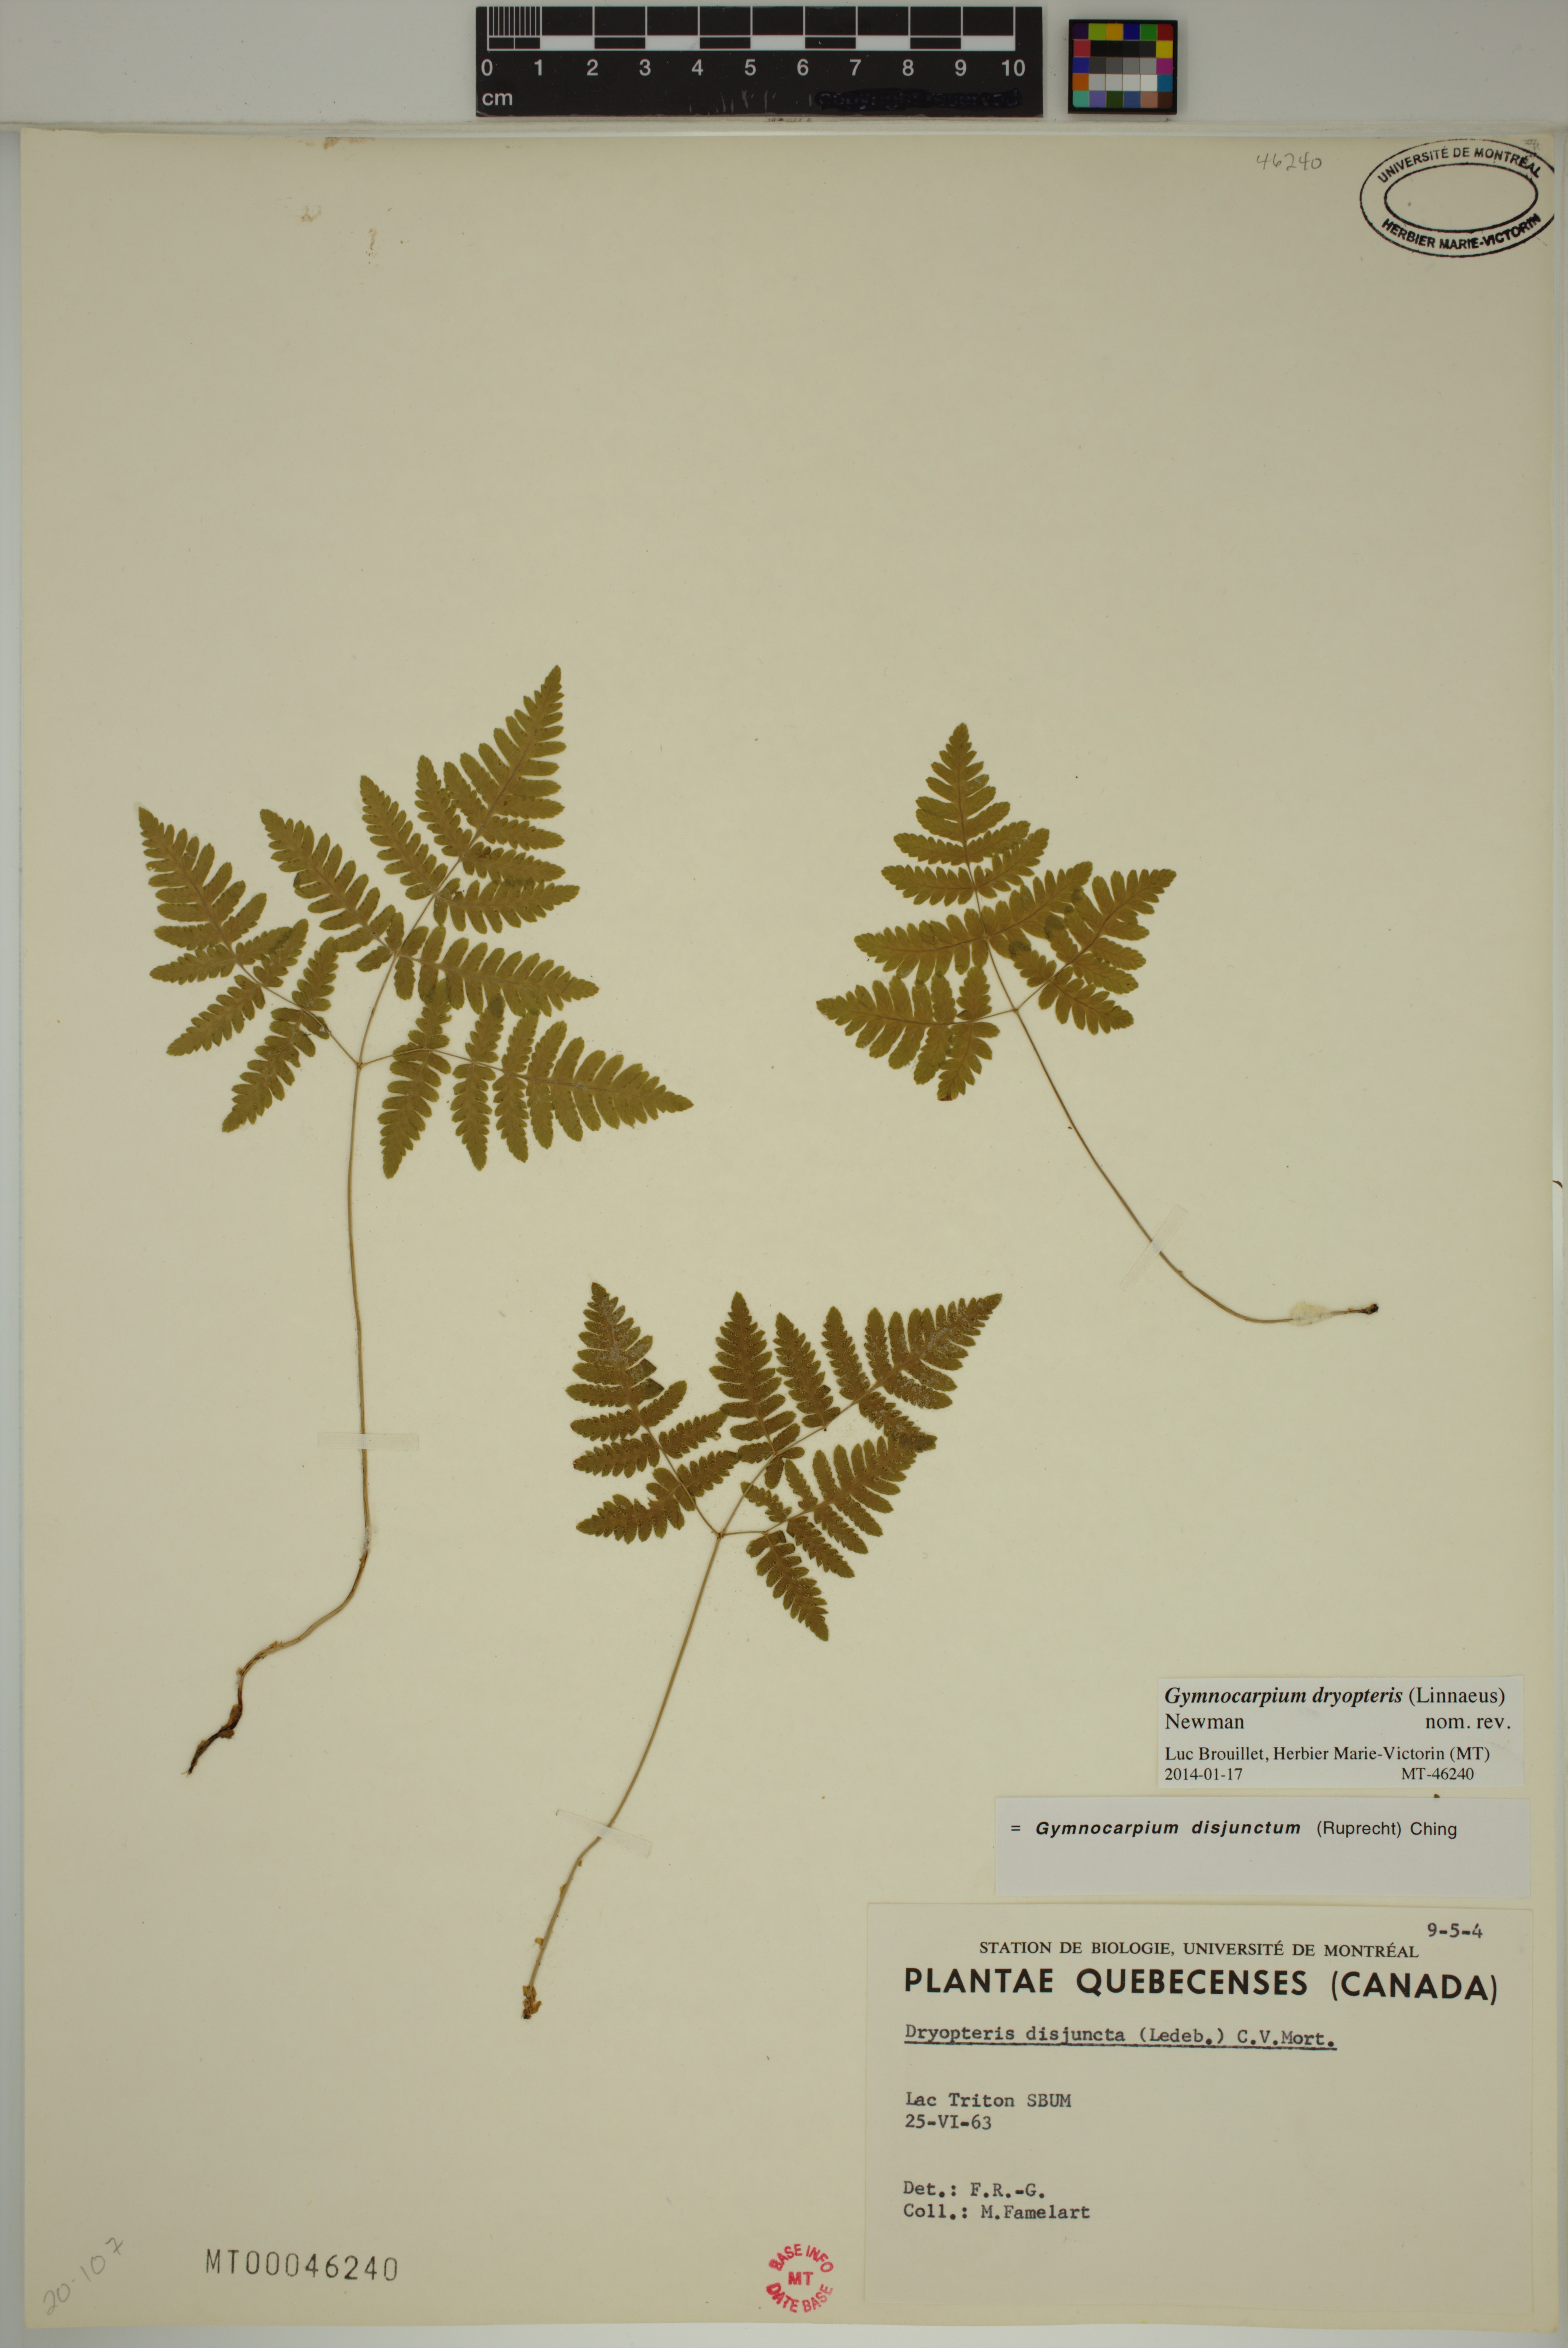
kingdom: Plantae
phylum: Tracheophyta
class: Polypodiopsida
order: Polypodiales
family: Cystopteridaceae
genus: Gymnocarpium
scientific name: Gymnocarpium dryopteris
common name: Oak fern
